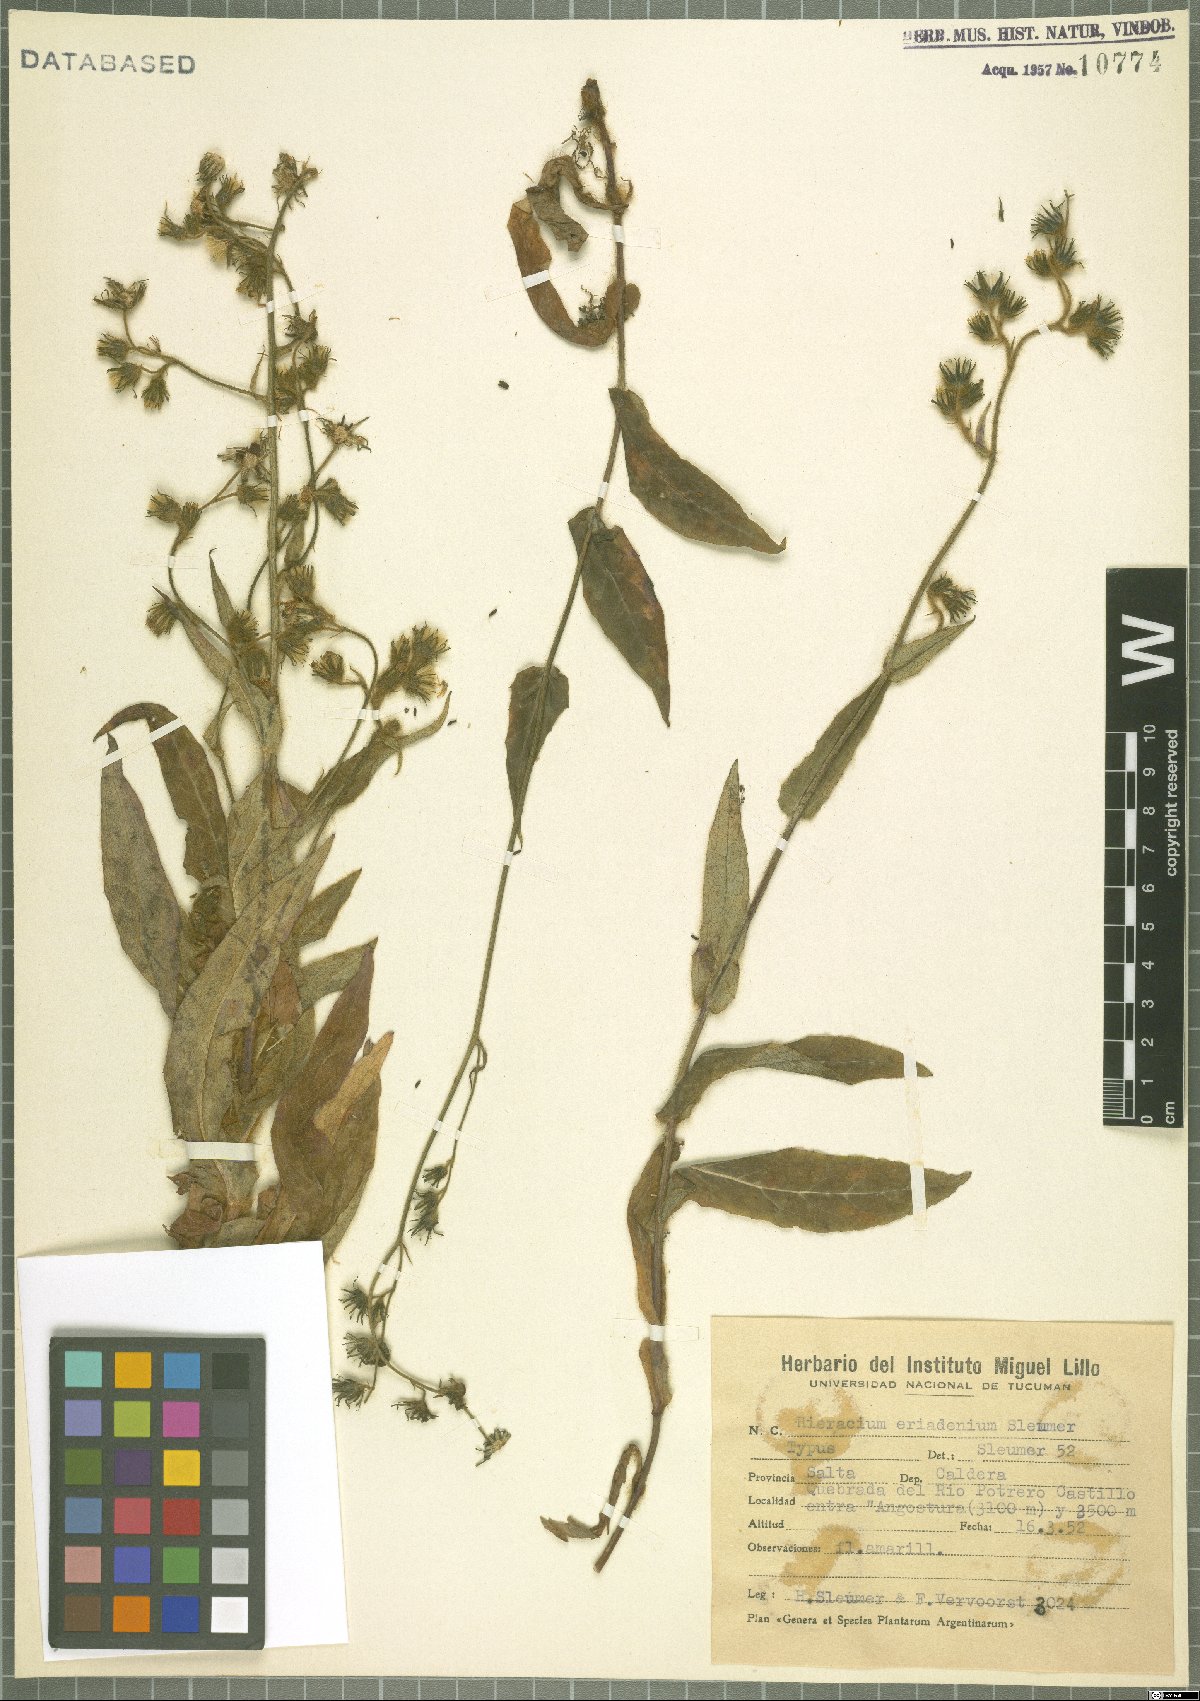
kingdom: Plantae
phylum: Tracheophyta
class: Magnoliopsida
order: Asterales
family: Asteraceae
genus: Hieracium
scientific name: Hieracium eriadenium
